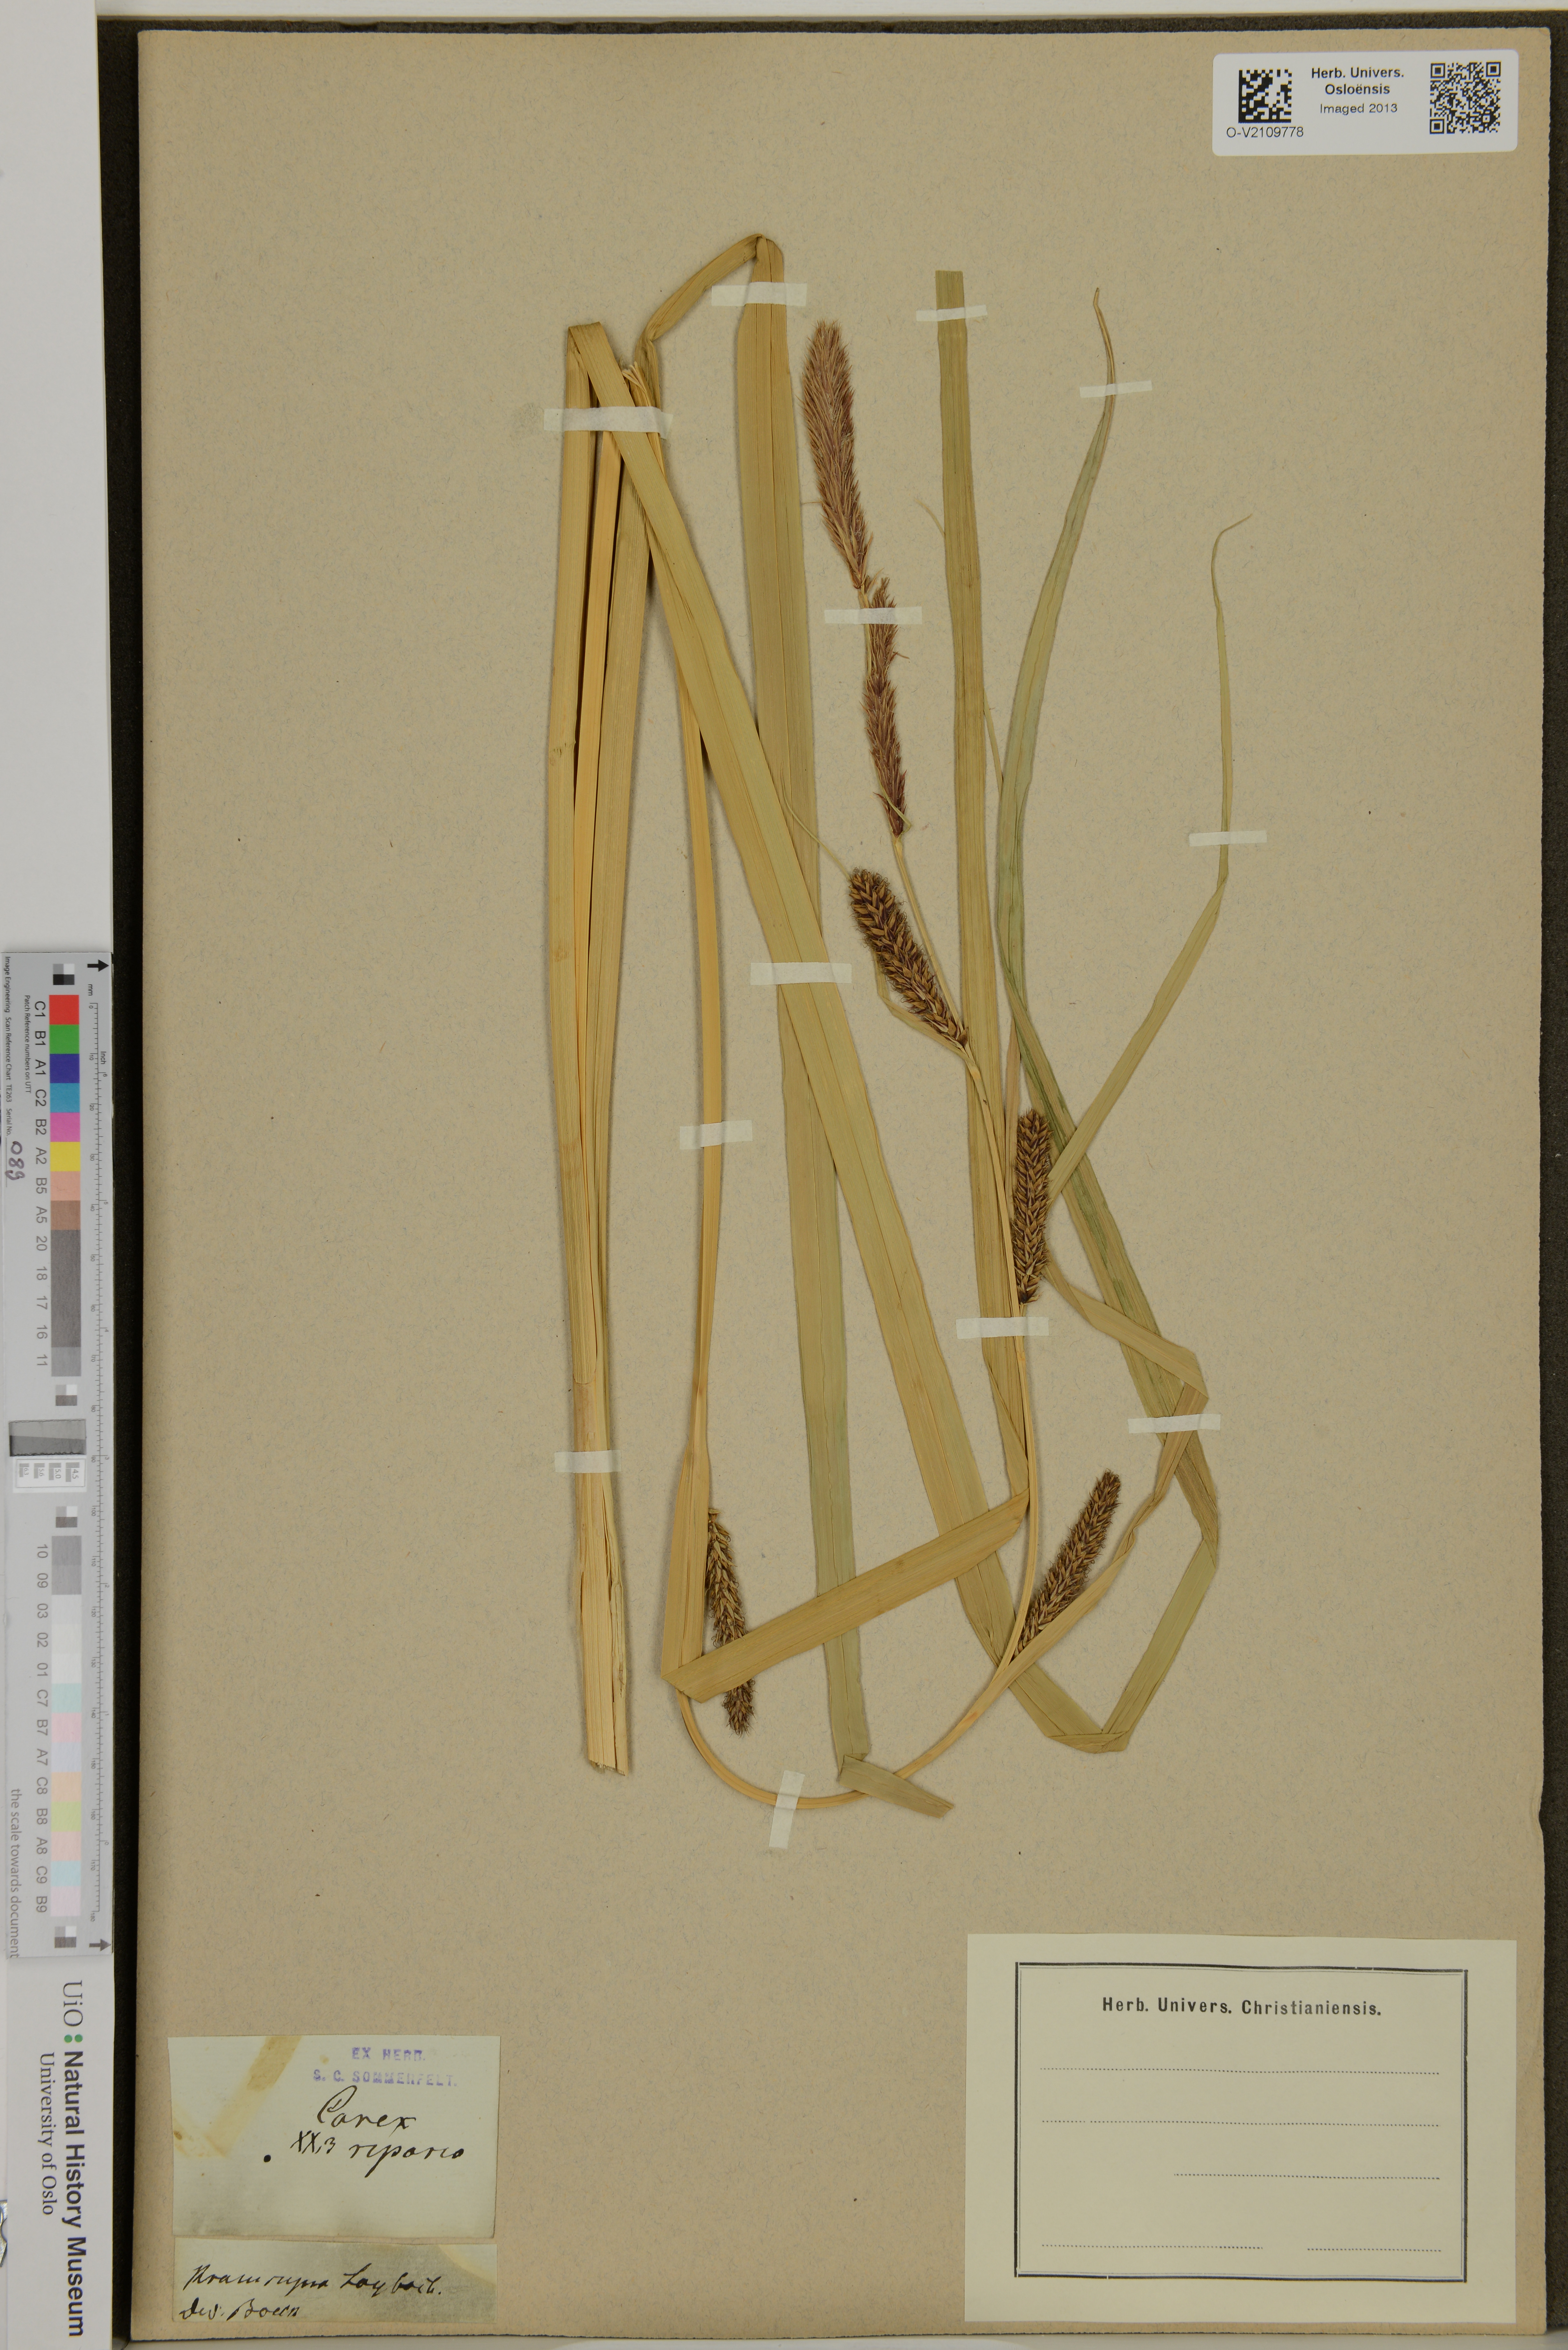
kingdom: Plantae
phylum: Tracheophyta
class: Liliopsida
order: Poales
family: Cyperaceae
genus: Carex
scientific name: Carex riparia
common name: Greater pond-sedge
